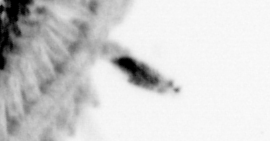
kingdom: Animalia
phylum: Annelida
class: Polychaeta
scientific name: Polychaeta
